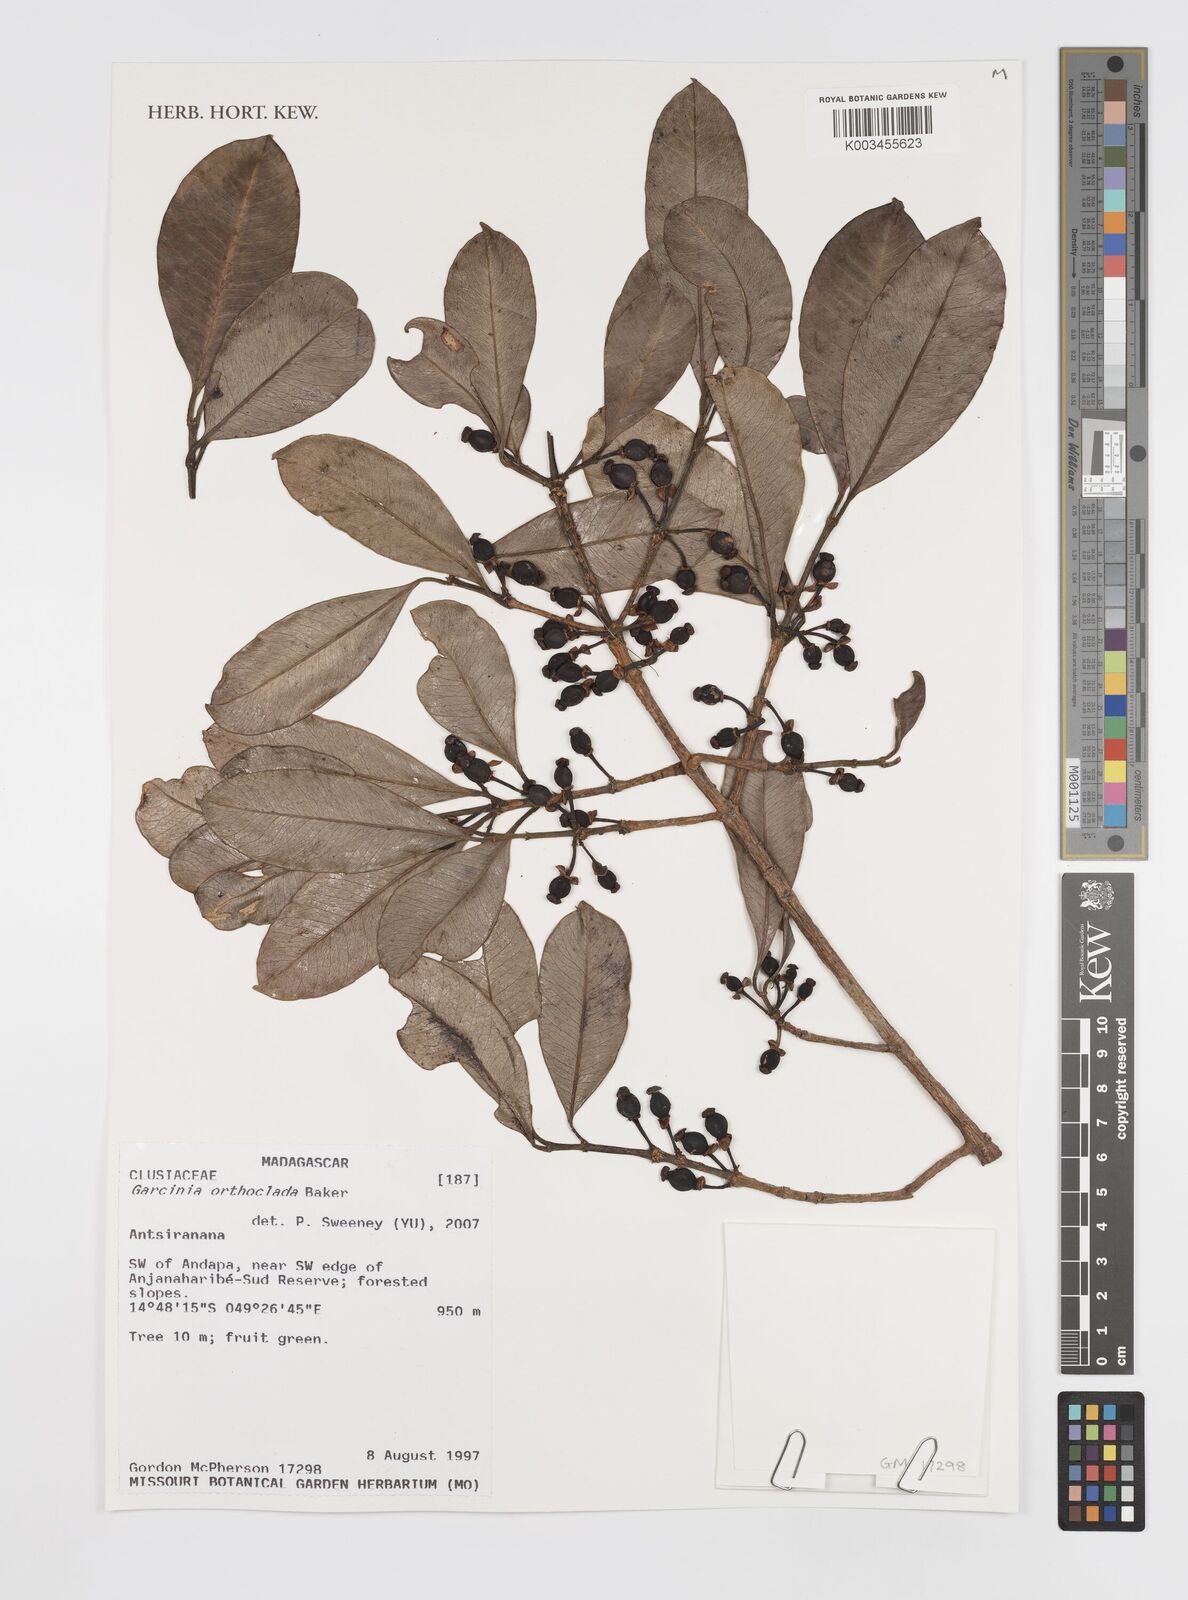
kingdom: Plantae
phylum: Tracheophyta
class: Magnoliopsida
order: Malpighiales
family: Clusiaceae
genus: Garcinia
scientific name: Garcinia orthoclada
